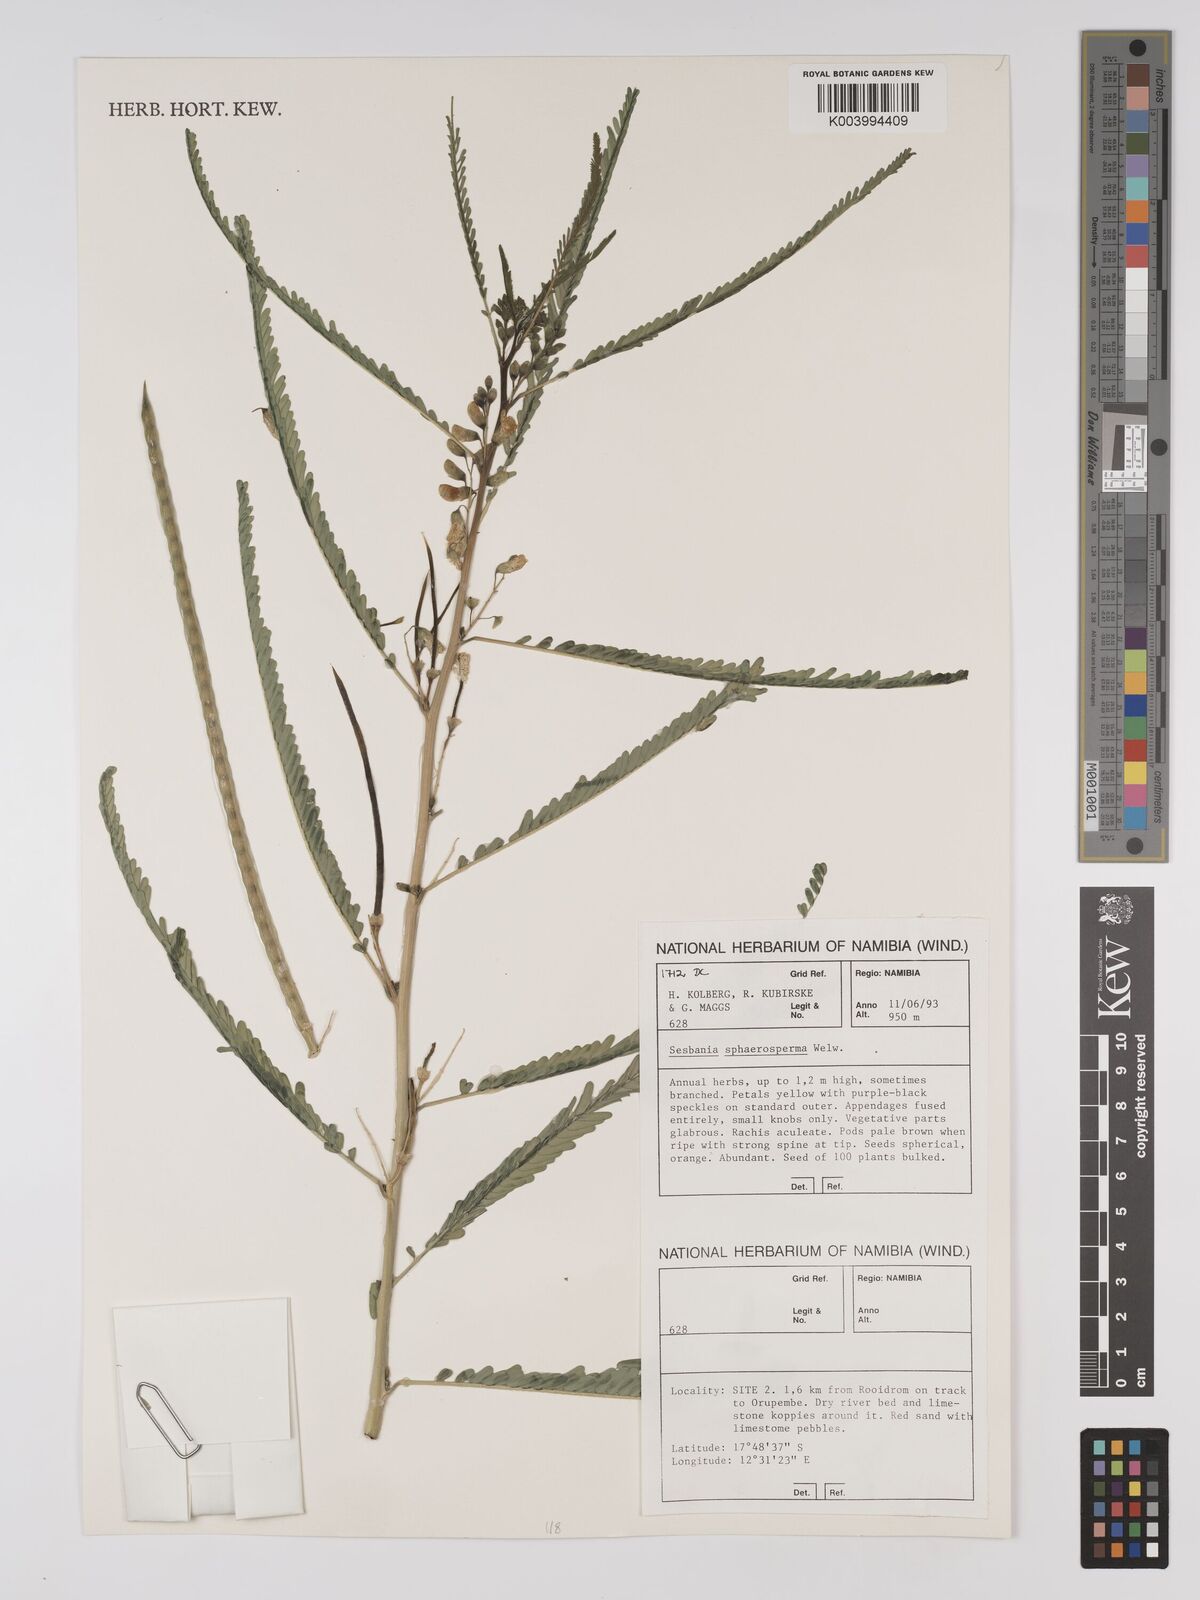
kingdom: Plantae
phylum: Tracheophyta
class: Magnoliopsida
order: Fabales
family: Fabaceae
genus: Sesbania
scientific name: Sesbania sphaerocarpa
